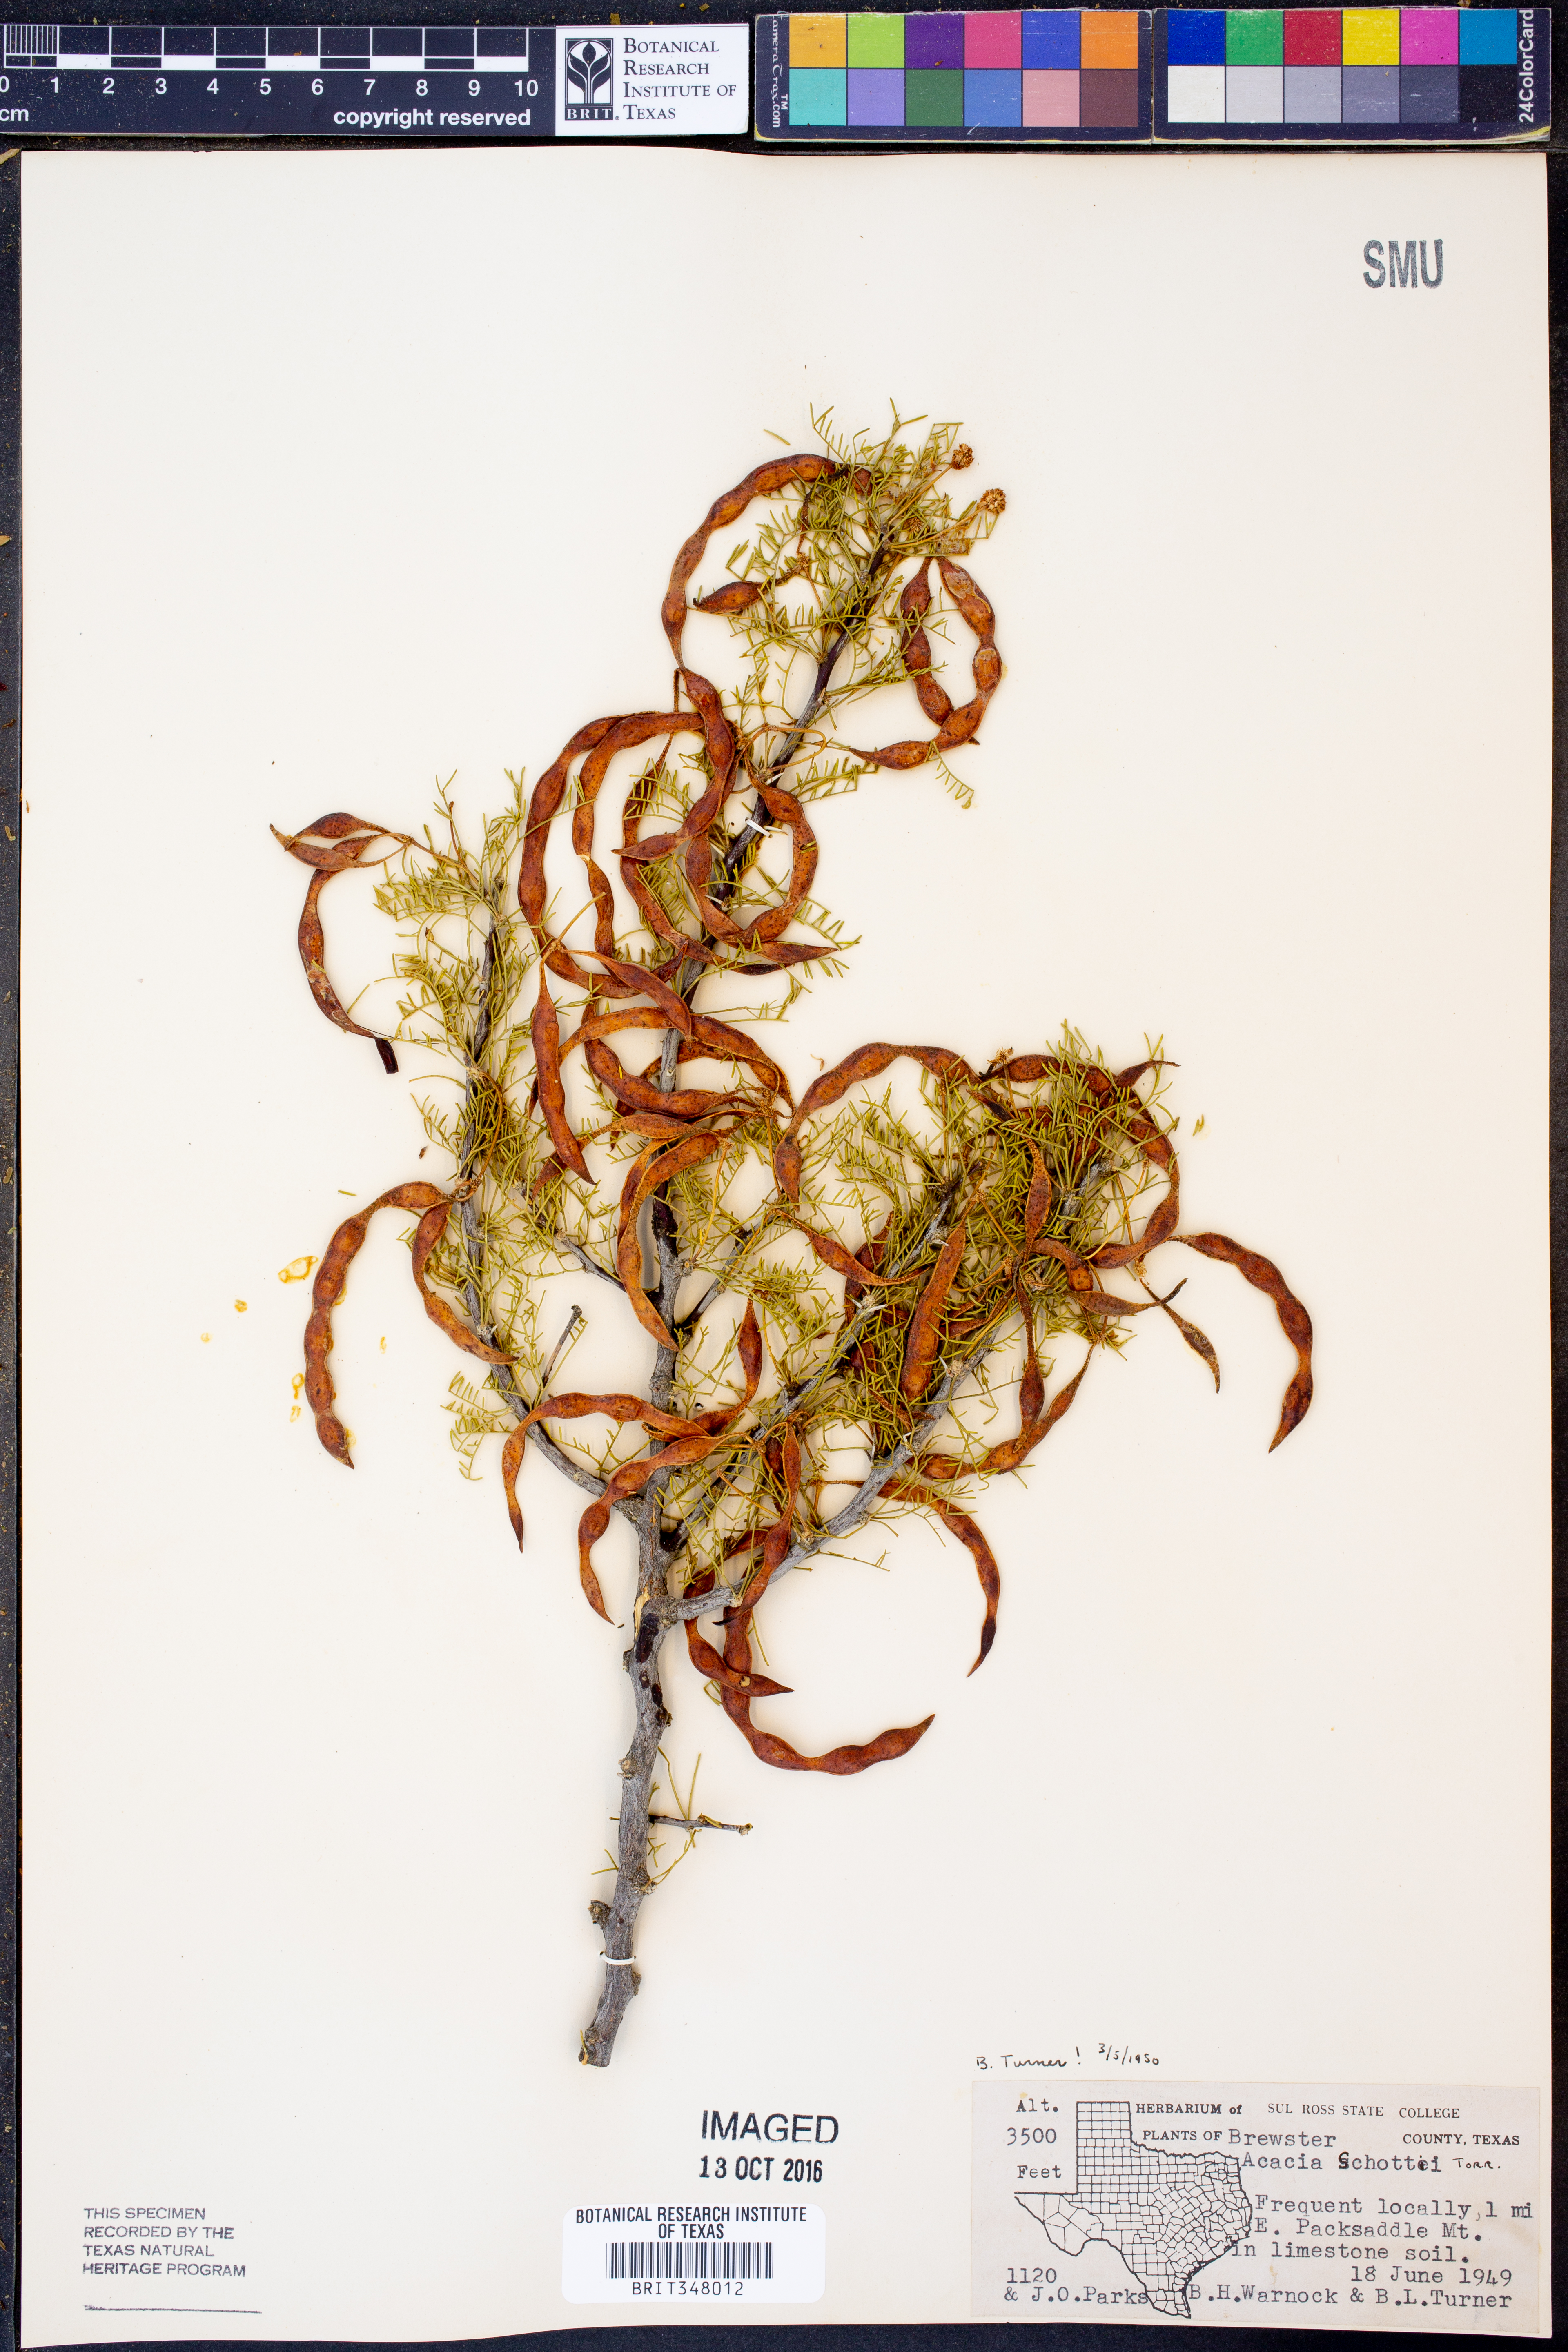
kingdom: Plantae
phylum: Tracheophyta
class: Magnoliopsida
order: Fabales
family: Fabaceae
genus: Vachellia
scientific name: Vachellia schottii
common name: Schott acacia
